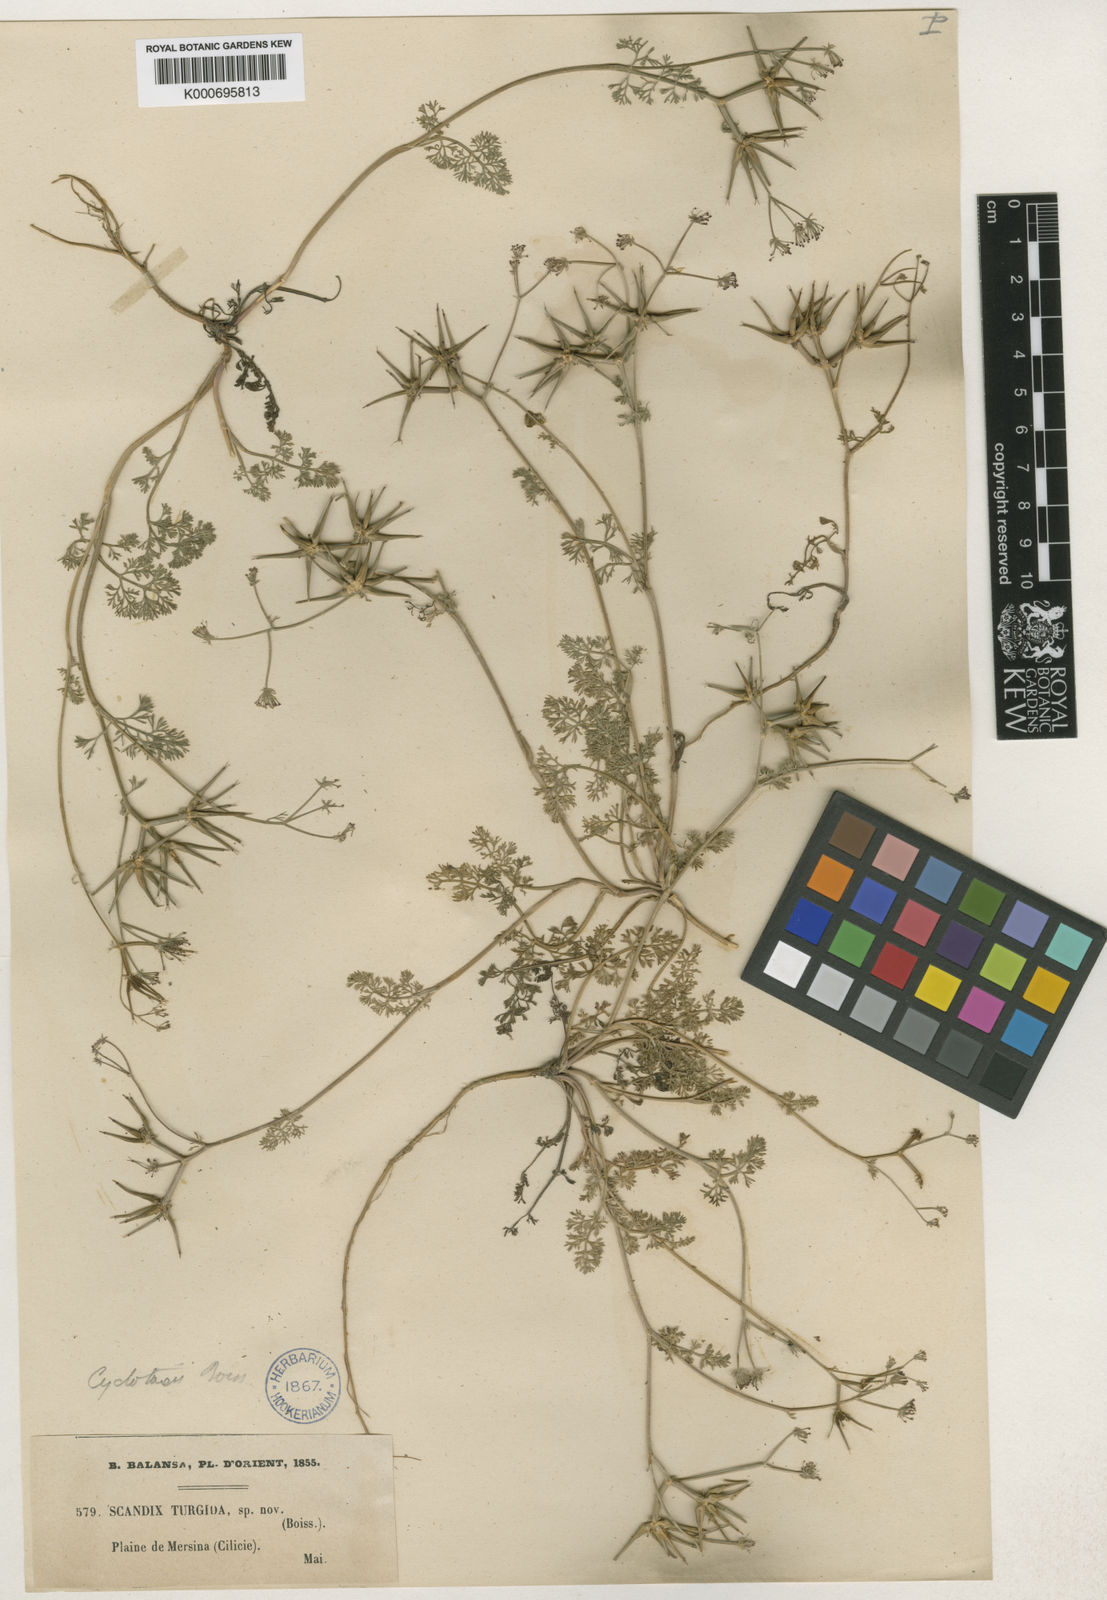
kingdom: Plantae
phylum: Tracheophyta
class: Magnoliopsida
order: Apiales
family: Apiaceae
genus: Scandix
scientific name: Scandix turgida
